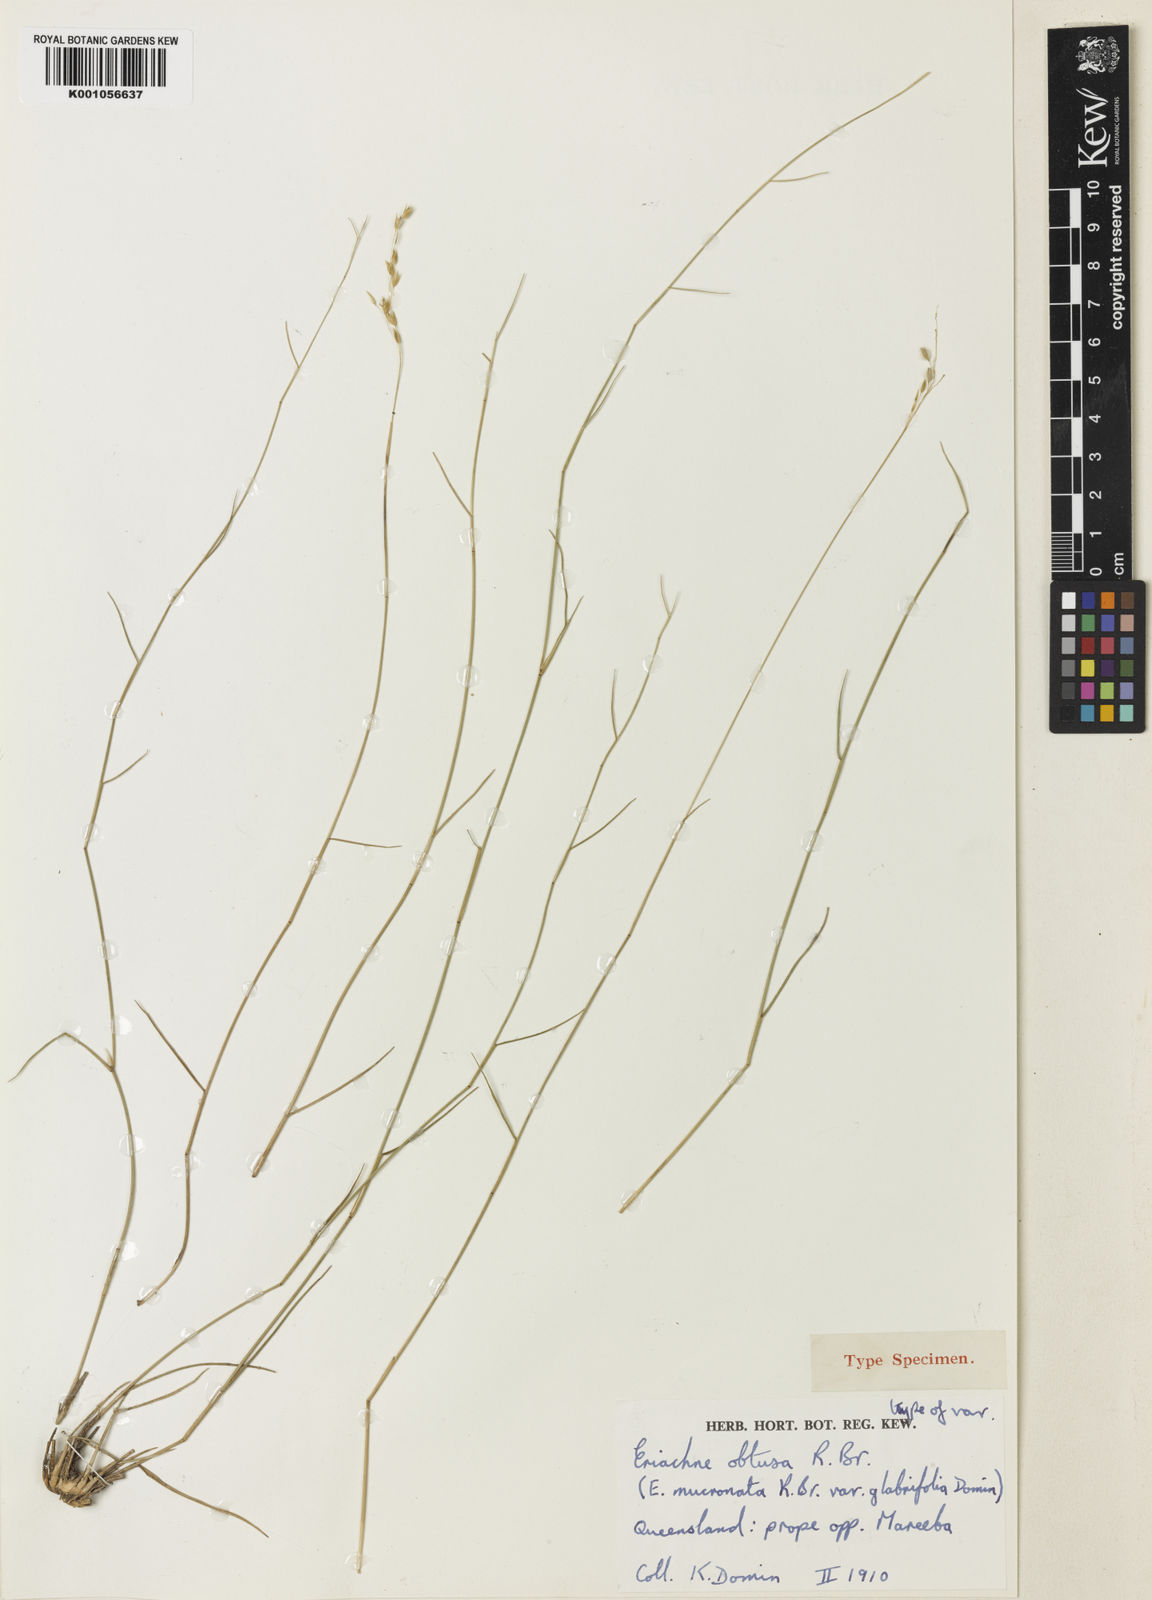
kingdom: Plantae
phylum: Tracheophyta
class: Liliopsida
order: Poales
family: Poaceae
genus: Eriachne
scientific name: Eriachne obtusa
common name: Northern wanderrie grass
